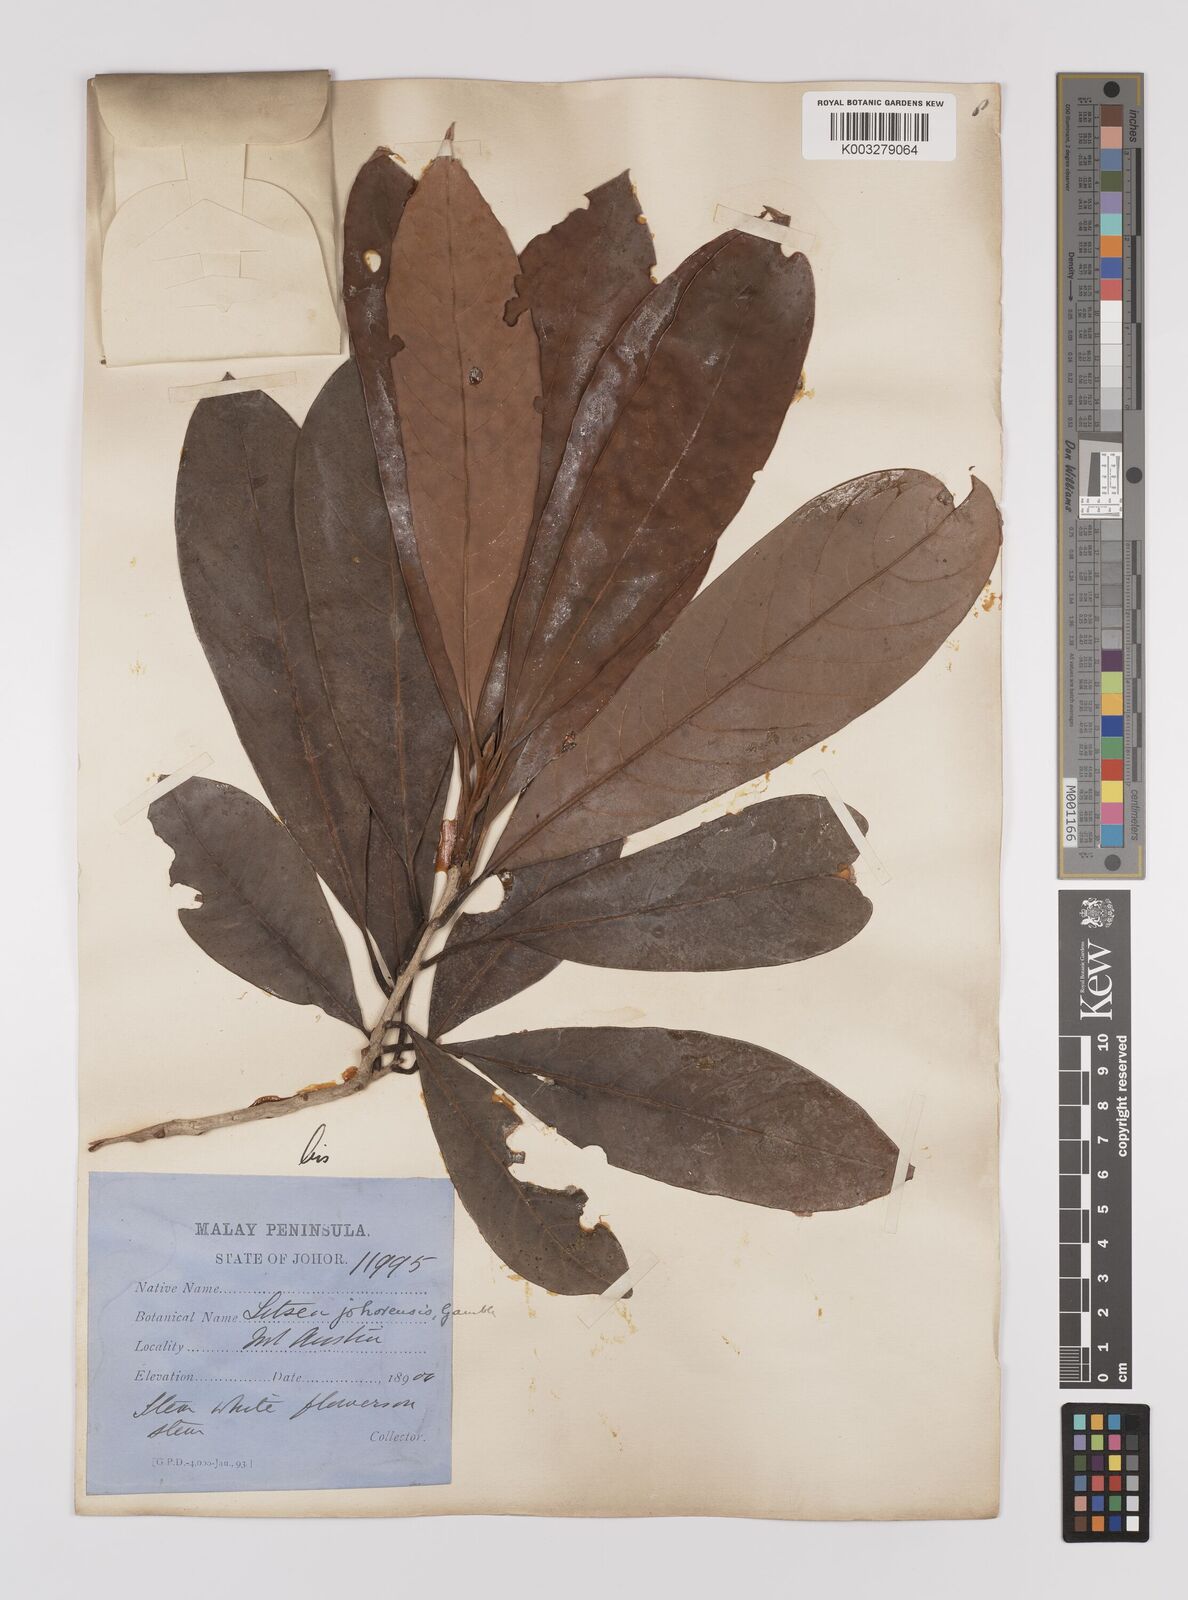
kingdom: Plantae
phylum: Tracheophyta
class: Magnoliopsida
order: Laurales
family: Lauraceae
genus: Litsea
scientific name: Litsea johorensis
